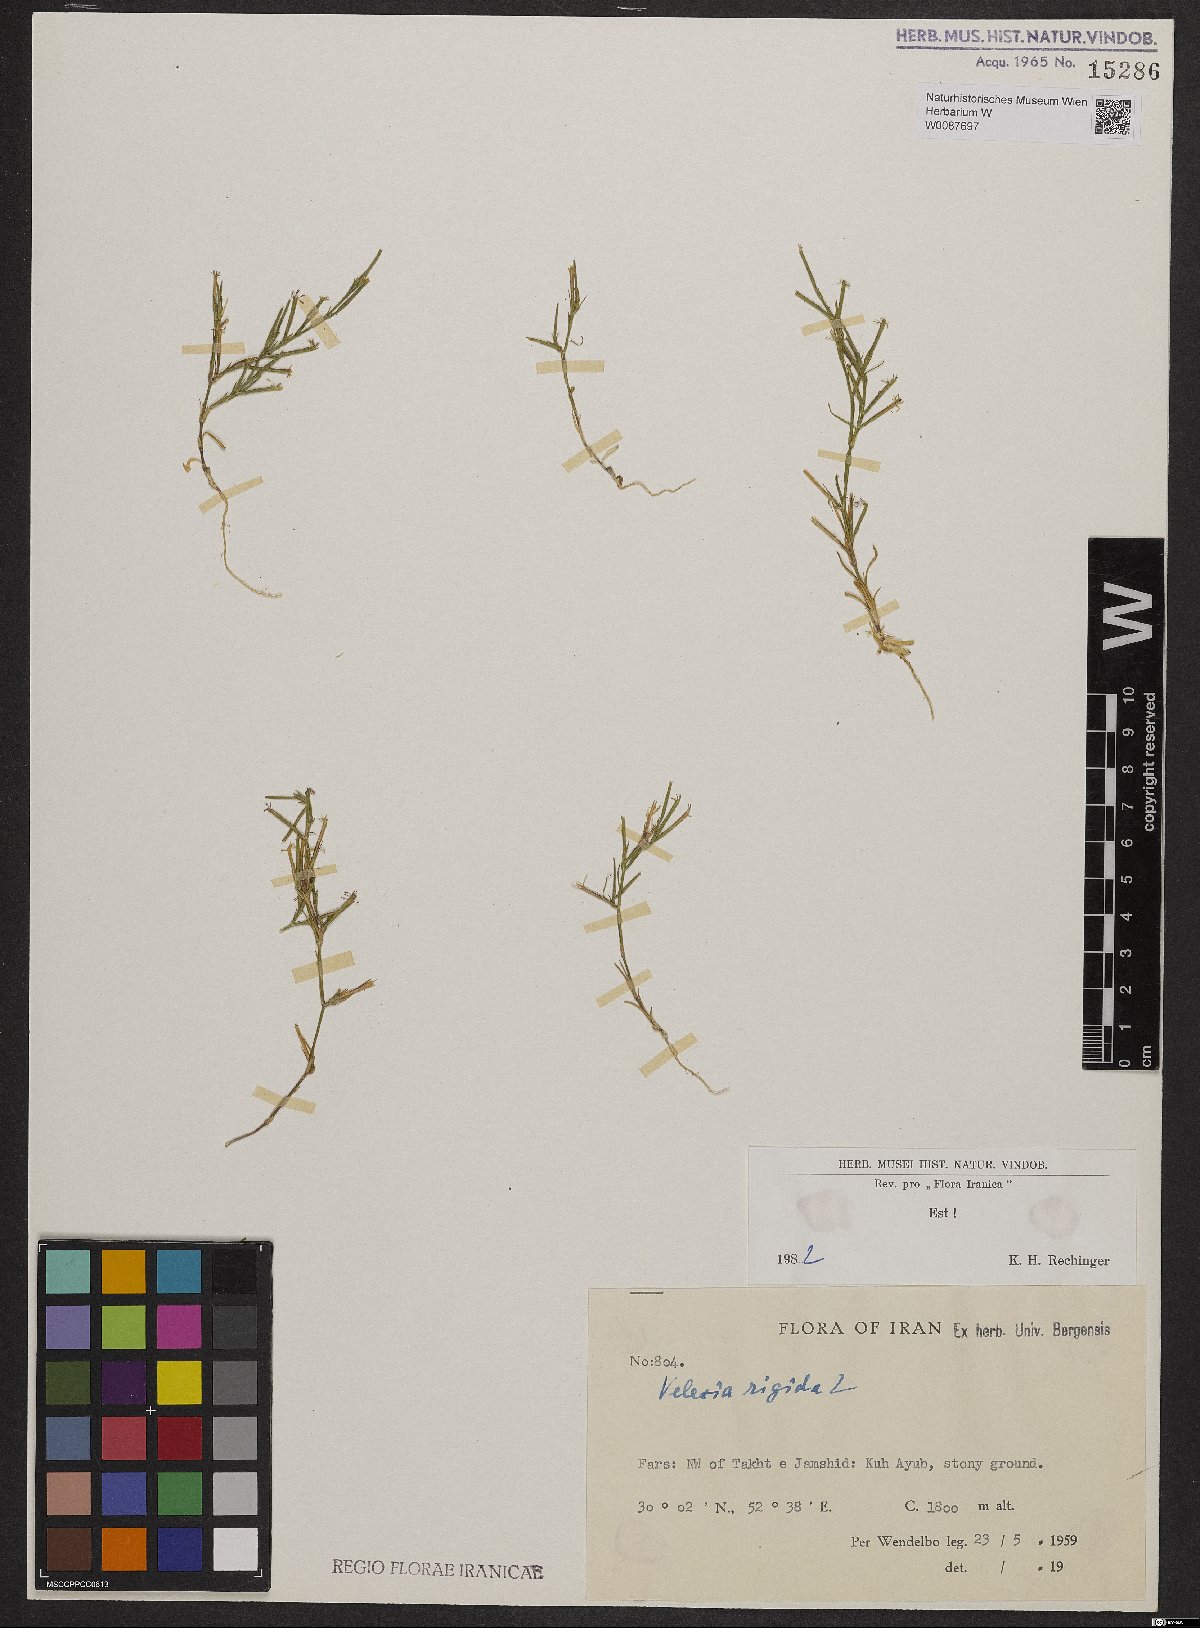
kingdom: Plantae
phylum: Tracheophyta
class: Magnoliopsida
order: Caryophyllales
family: Caryophyllaceae
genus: Dianthus
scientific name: Dianthus nudiflorus
